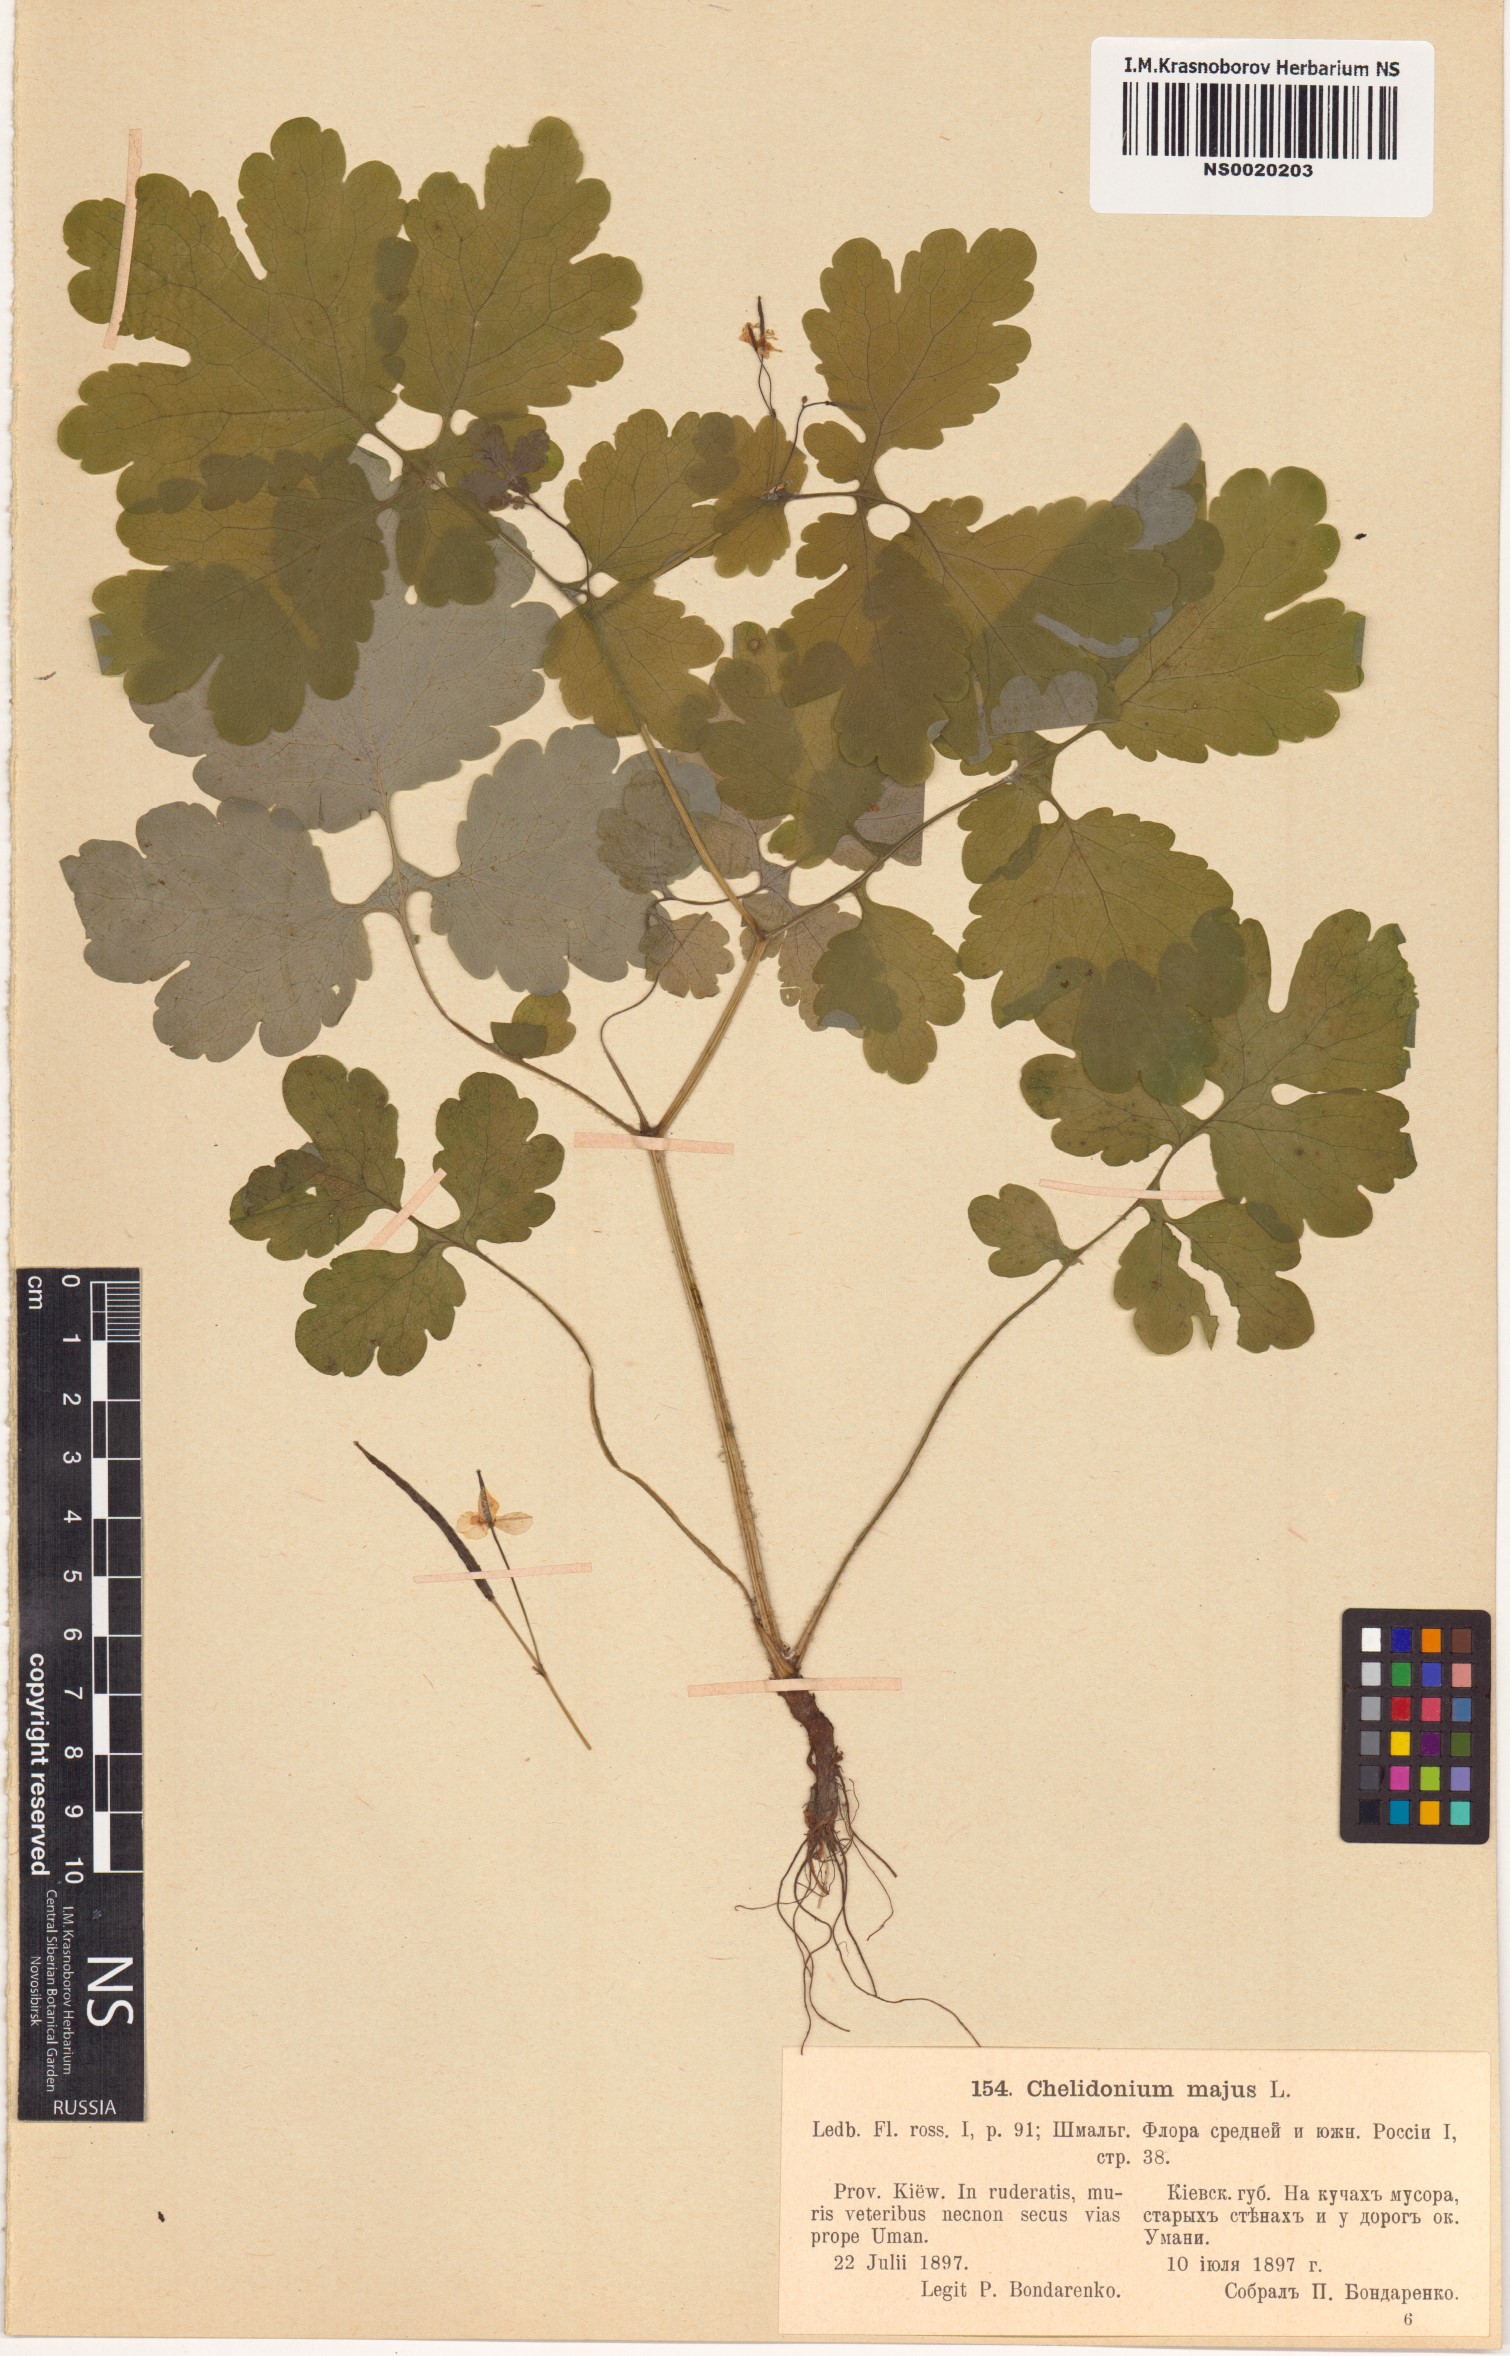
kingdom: Plantae
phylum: Tracheophyta
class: Magnoliopsida
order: Ranunculales
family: Papaveraceae
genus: Chelidonium
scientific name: Chelidonium majus
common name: Greater celandine
